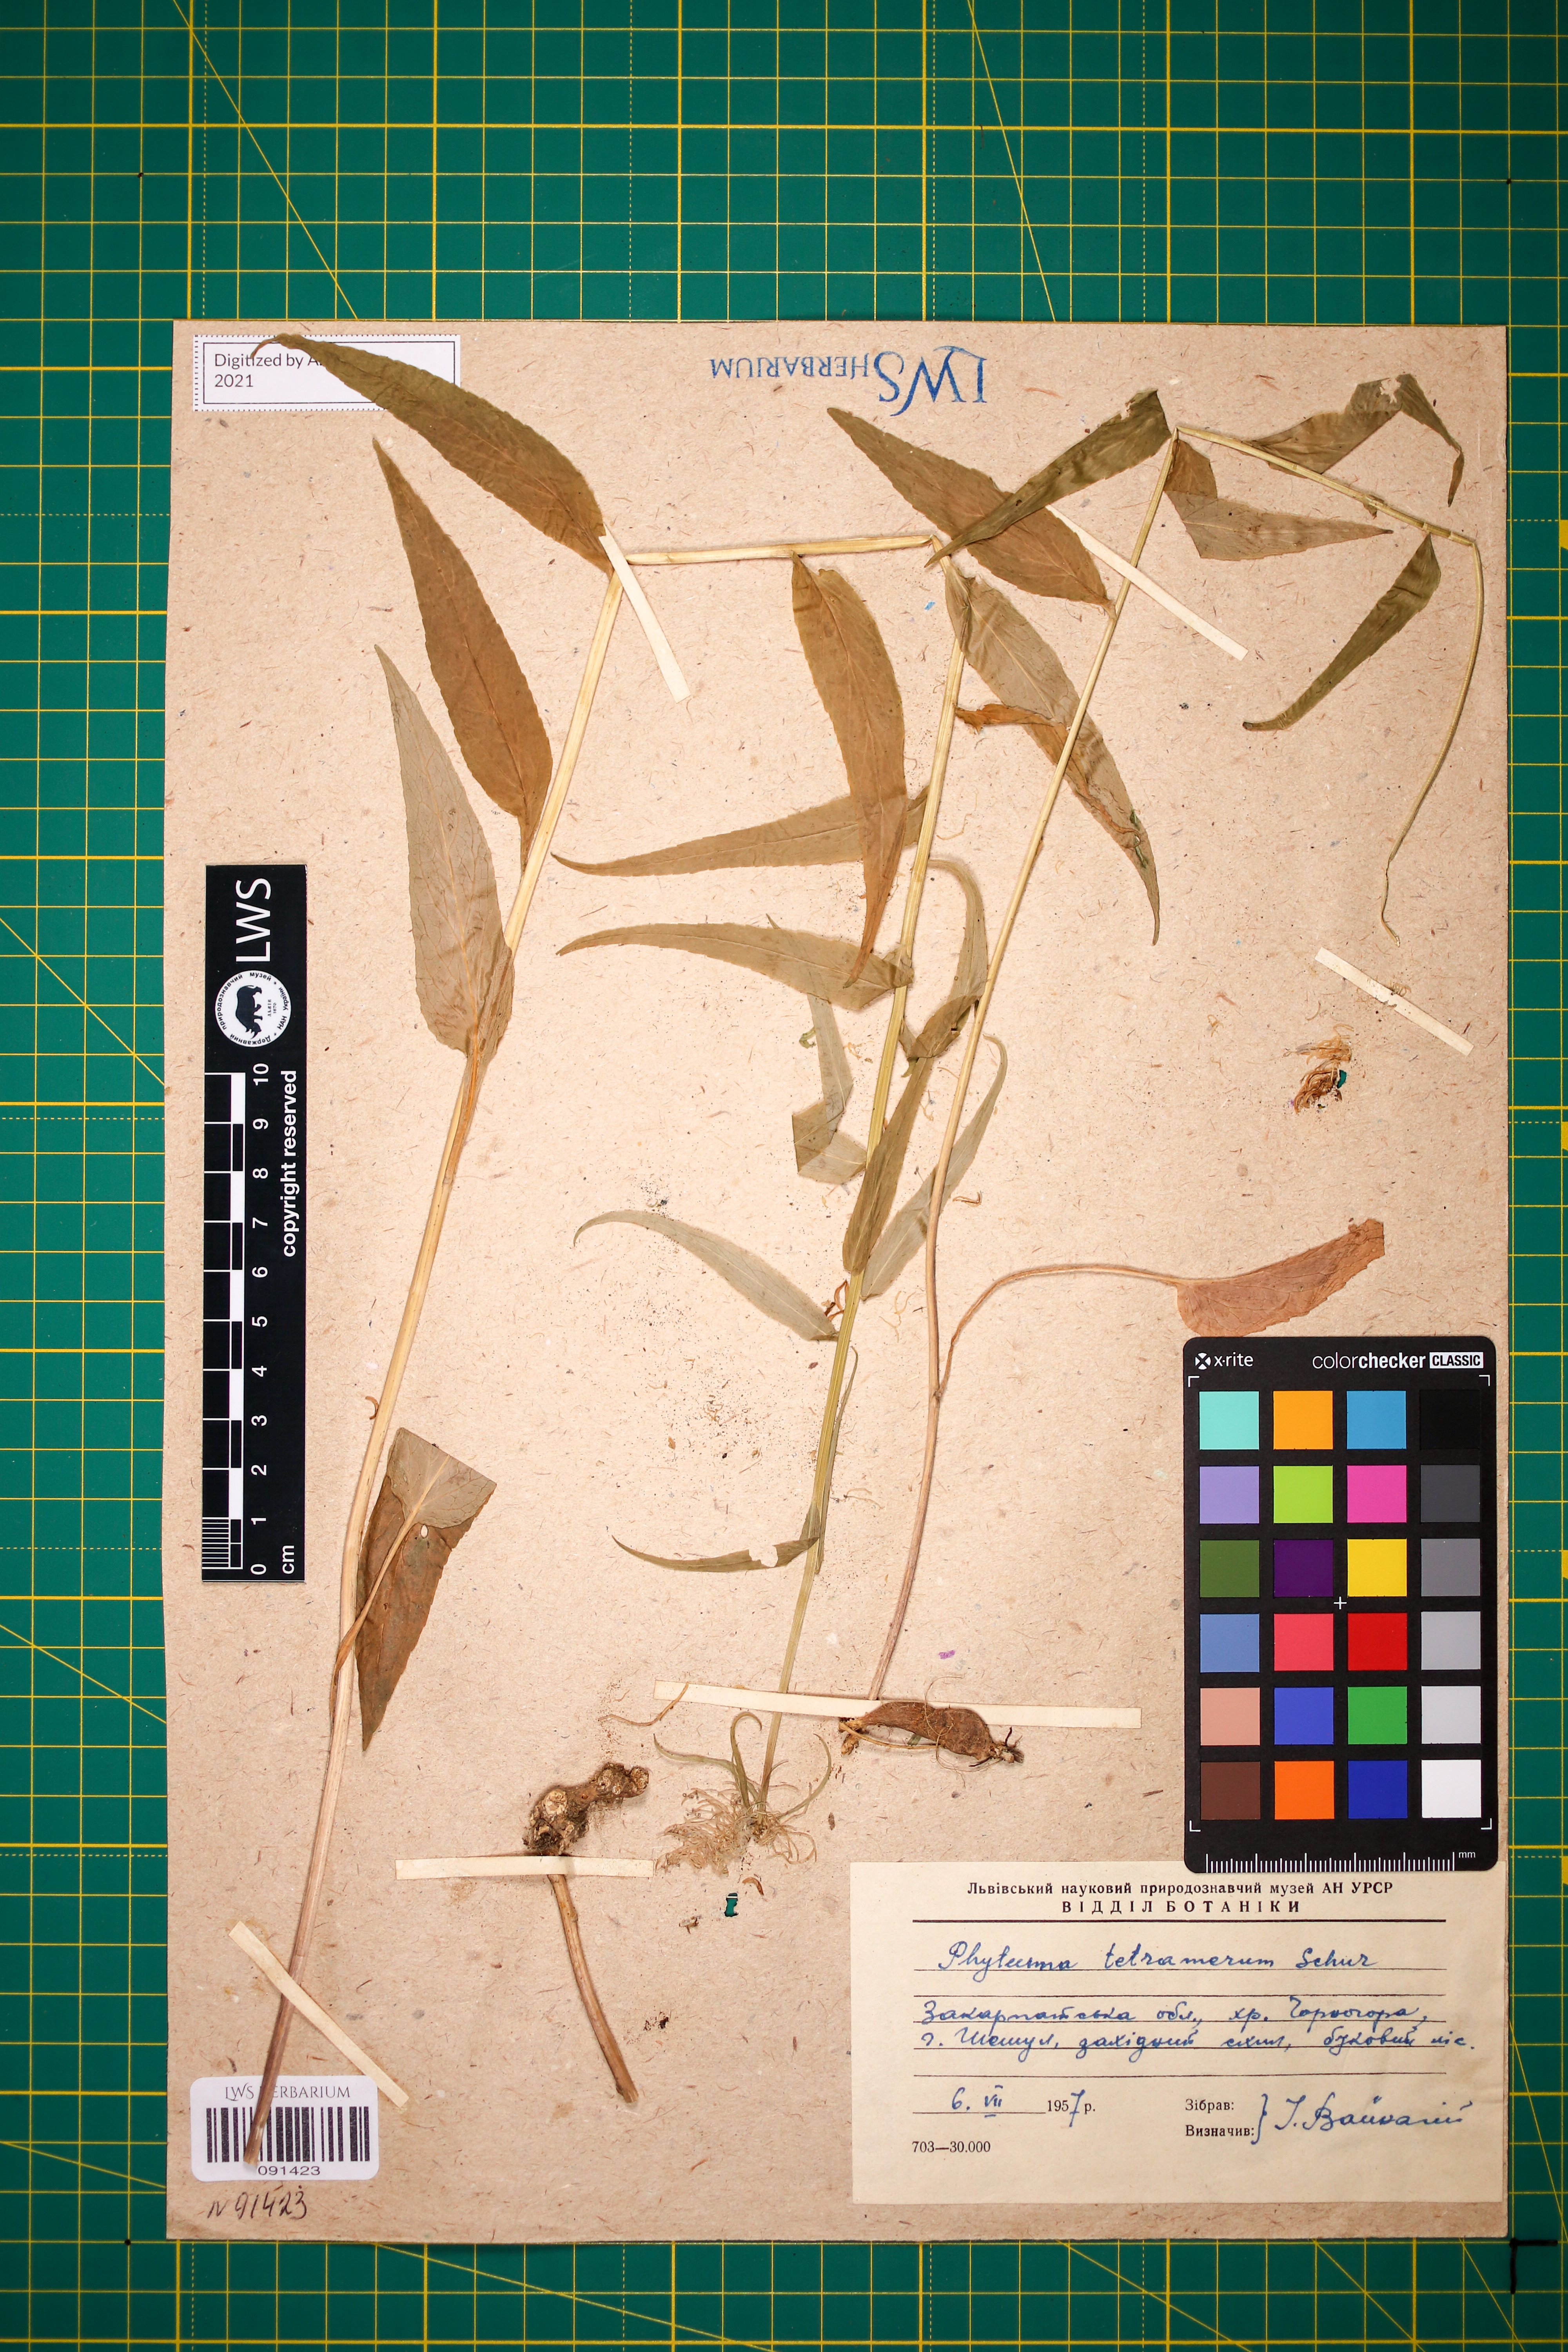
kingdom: Plantae
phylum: Tracheophyta
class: Magnoliopsida
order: Asterales
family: Campanulaceae
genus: Phyteuma
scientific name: Phyteuma tetramerum
